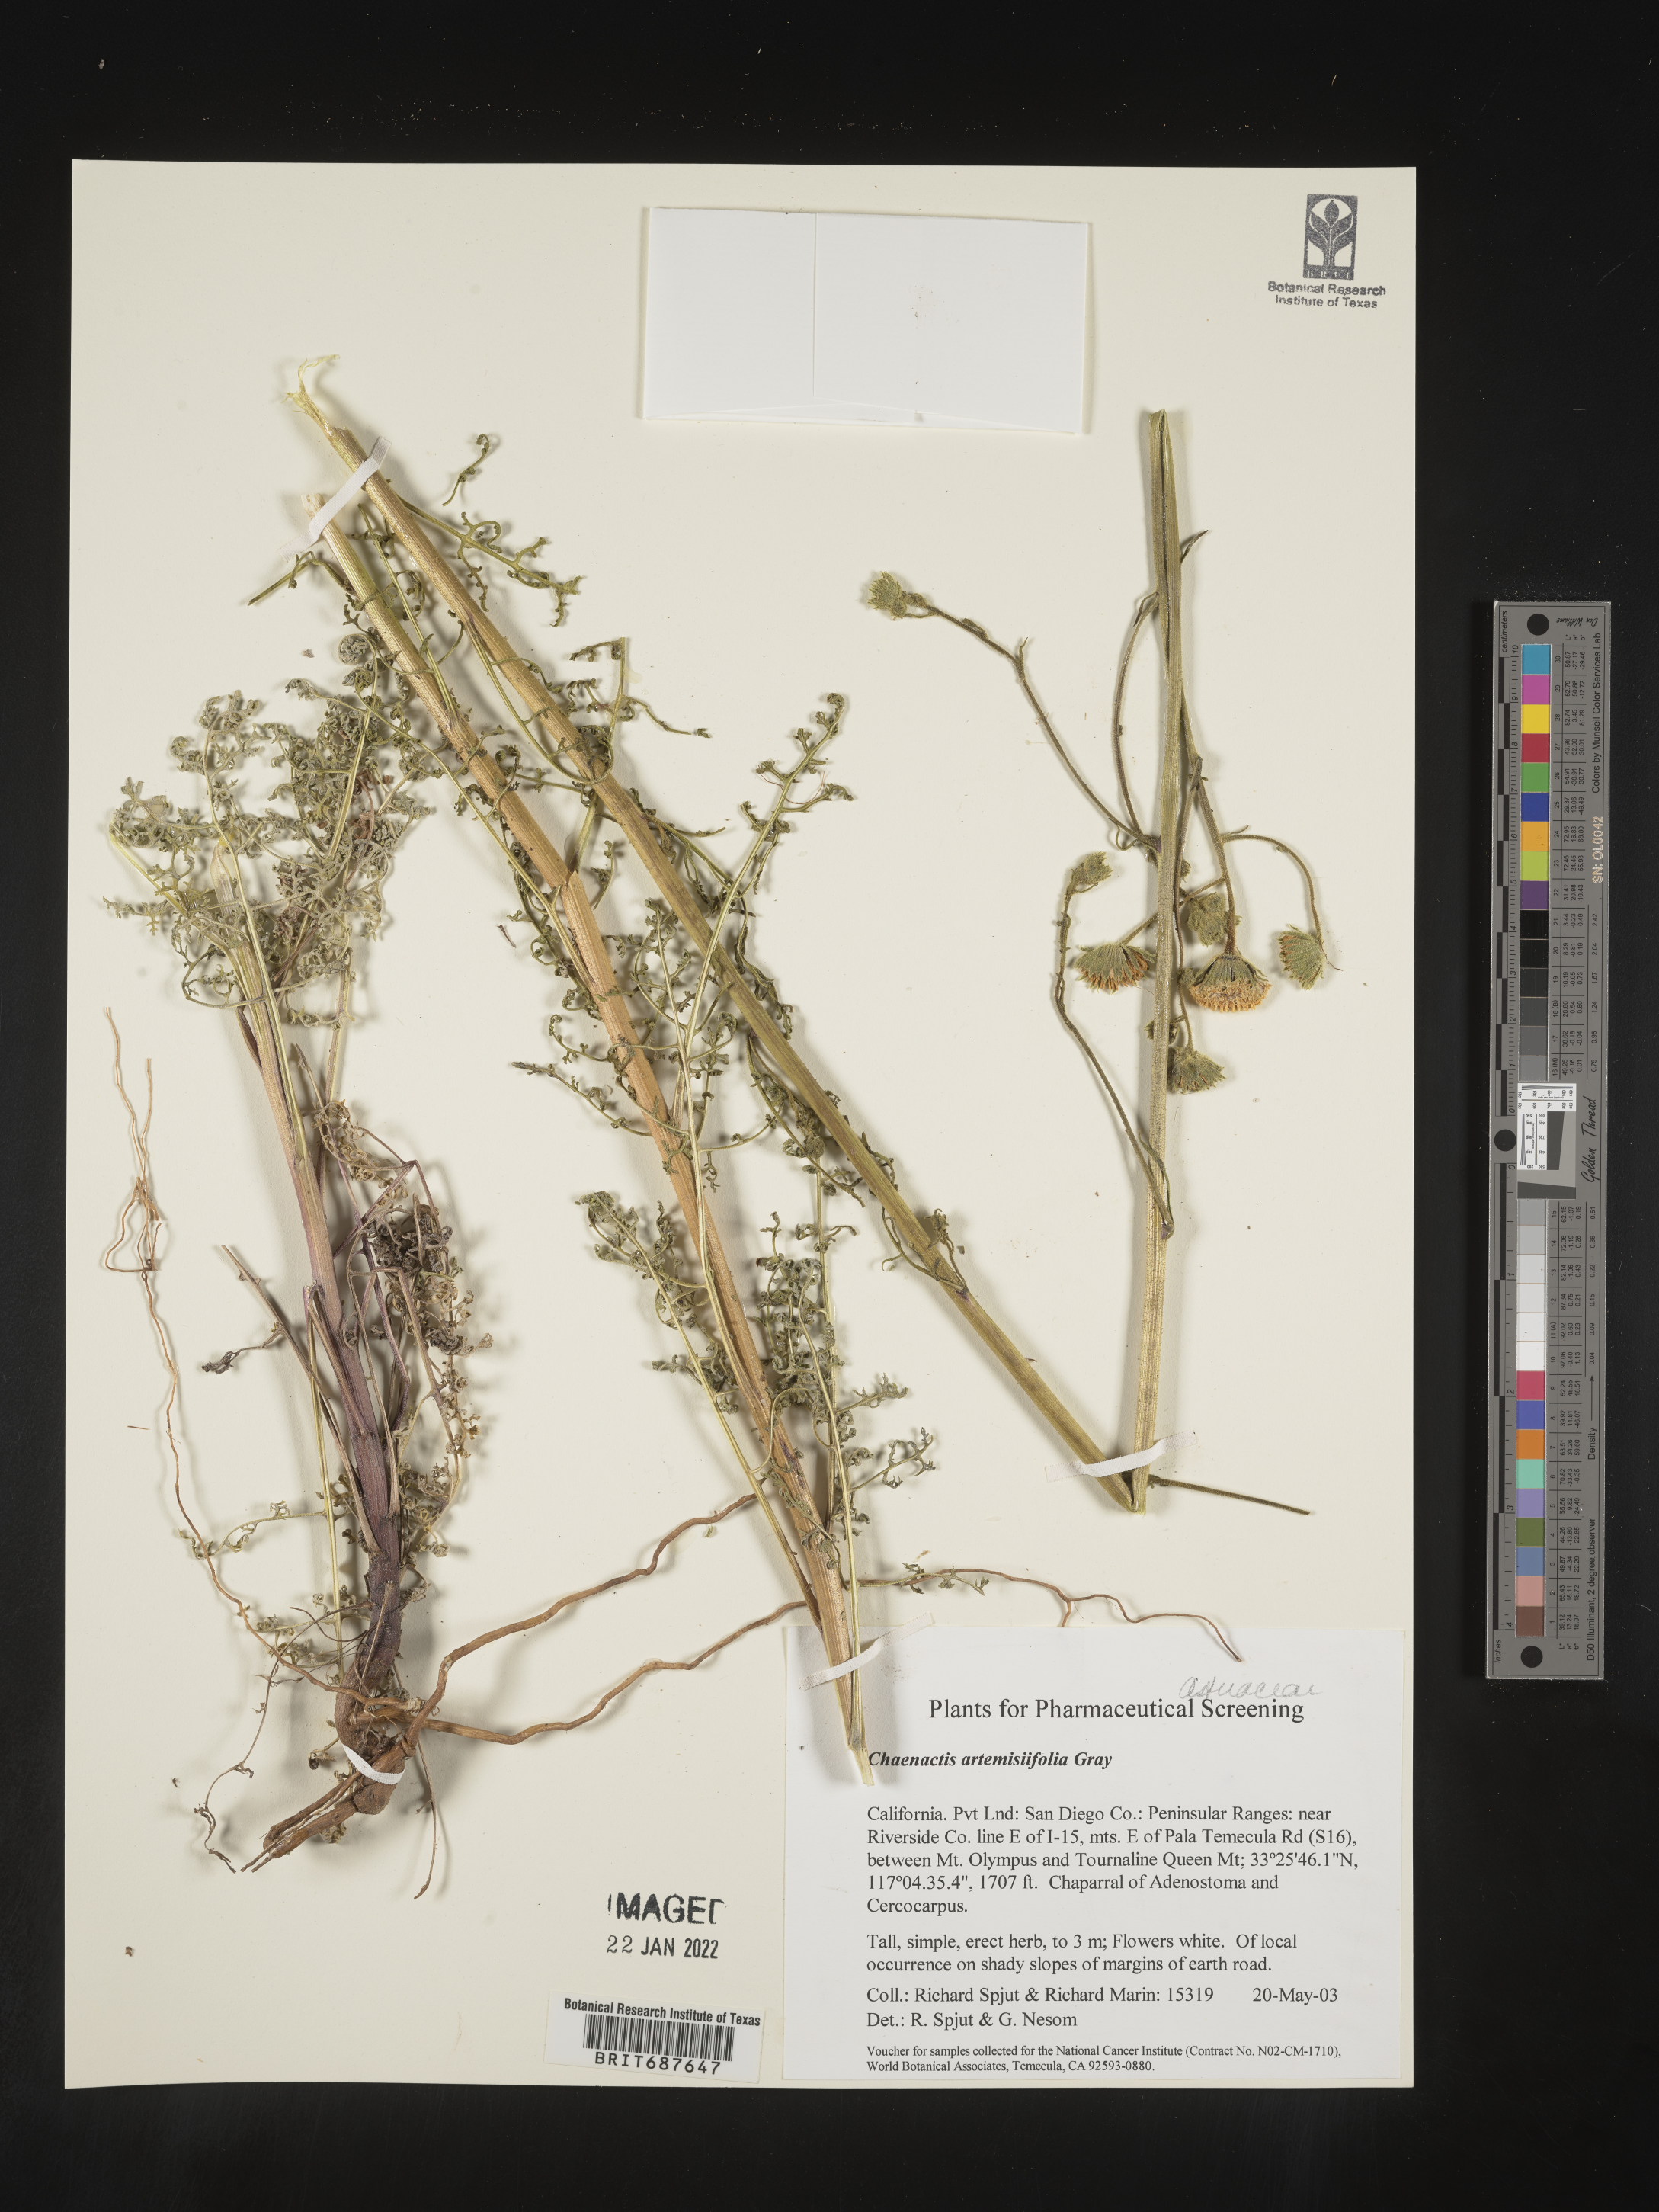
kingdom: Plantae
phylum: Tracheophyta
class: Magnoliopsida
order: Asterales
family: Asteraceae
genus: Chaenactis
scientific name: Chaenactis artemisiifolia
